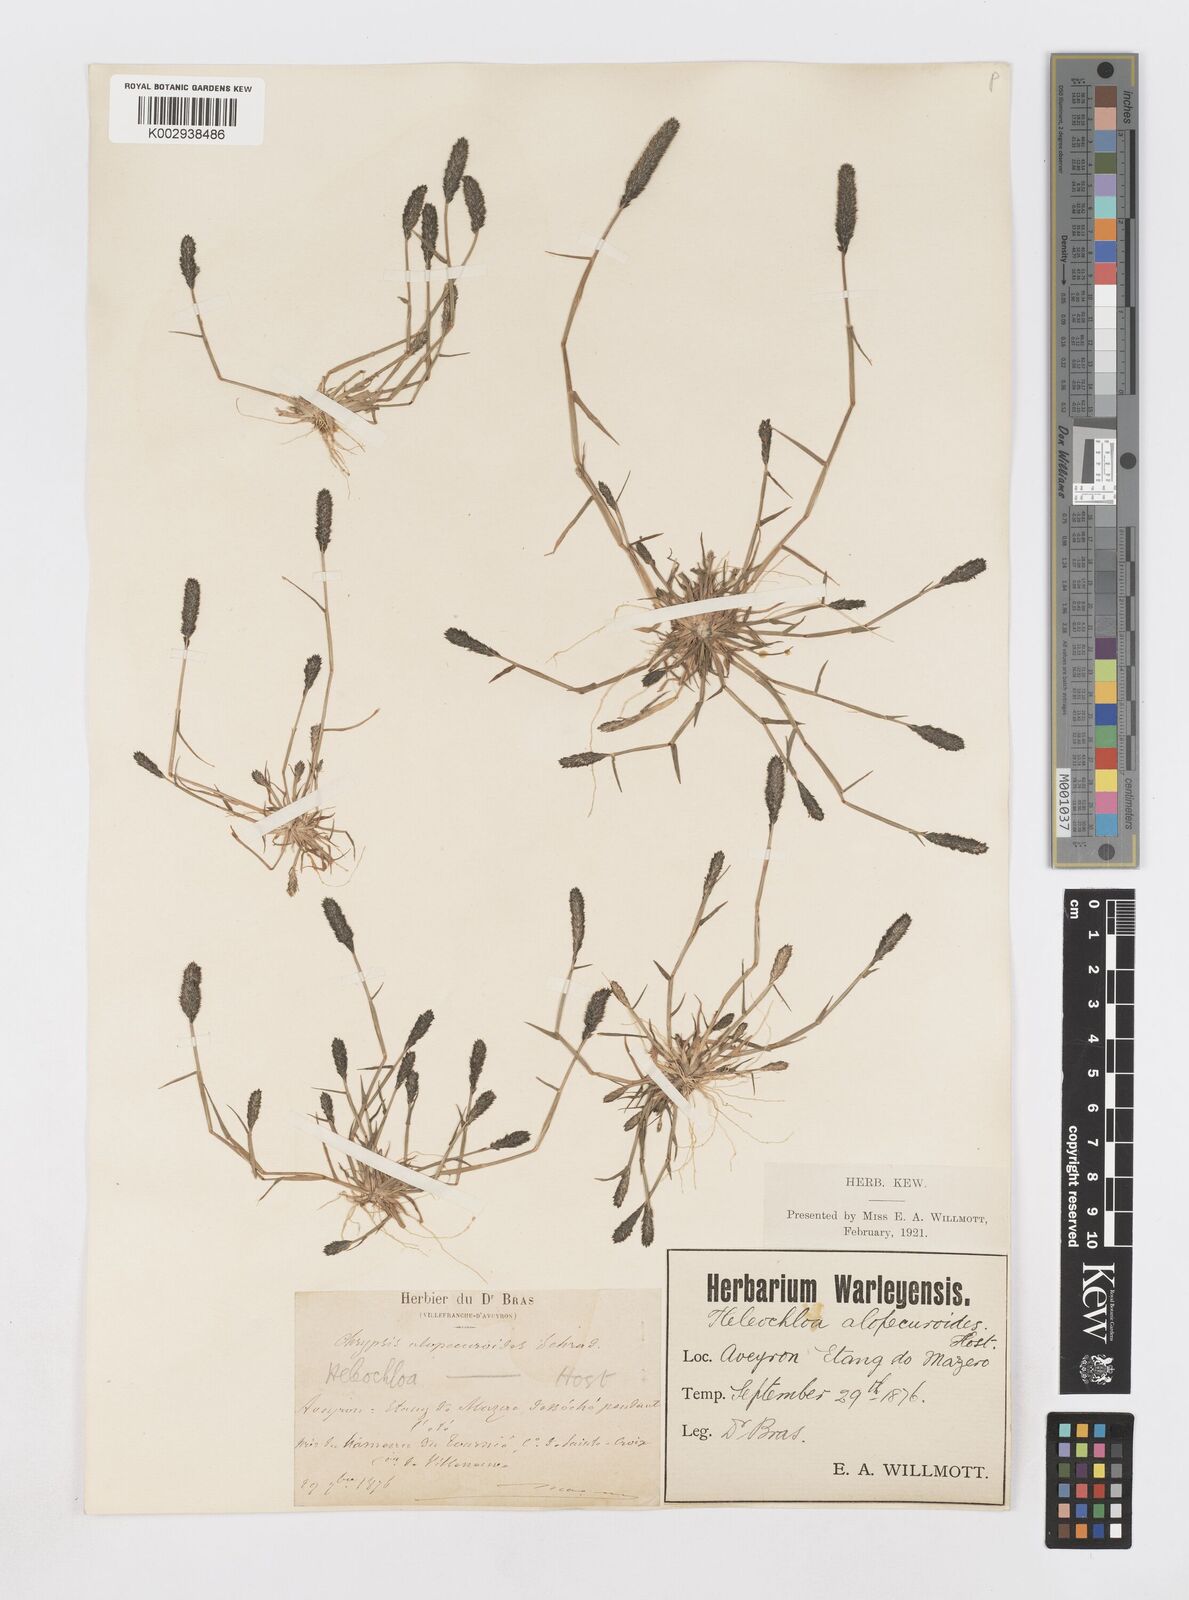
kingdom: Plantae
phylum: Tracheophyta
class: Liliopsida
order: Poales
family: Poaceae
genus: Sporobolus
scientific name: Sporobolus alopecuroides
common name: Foxtail pricklegrass
